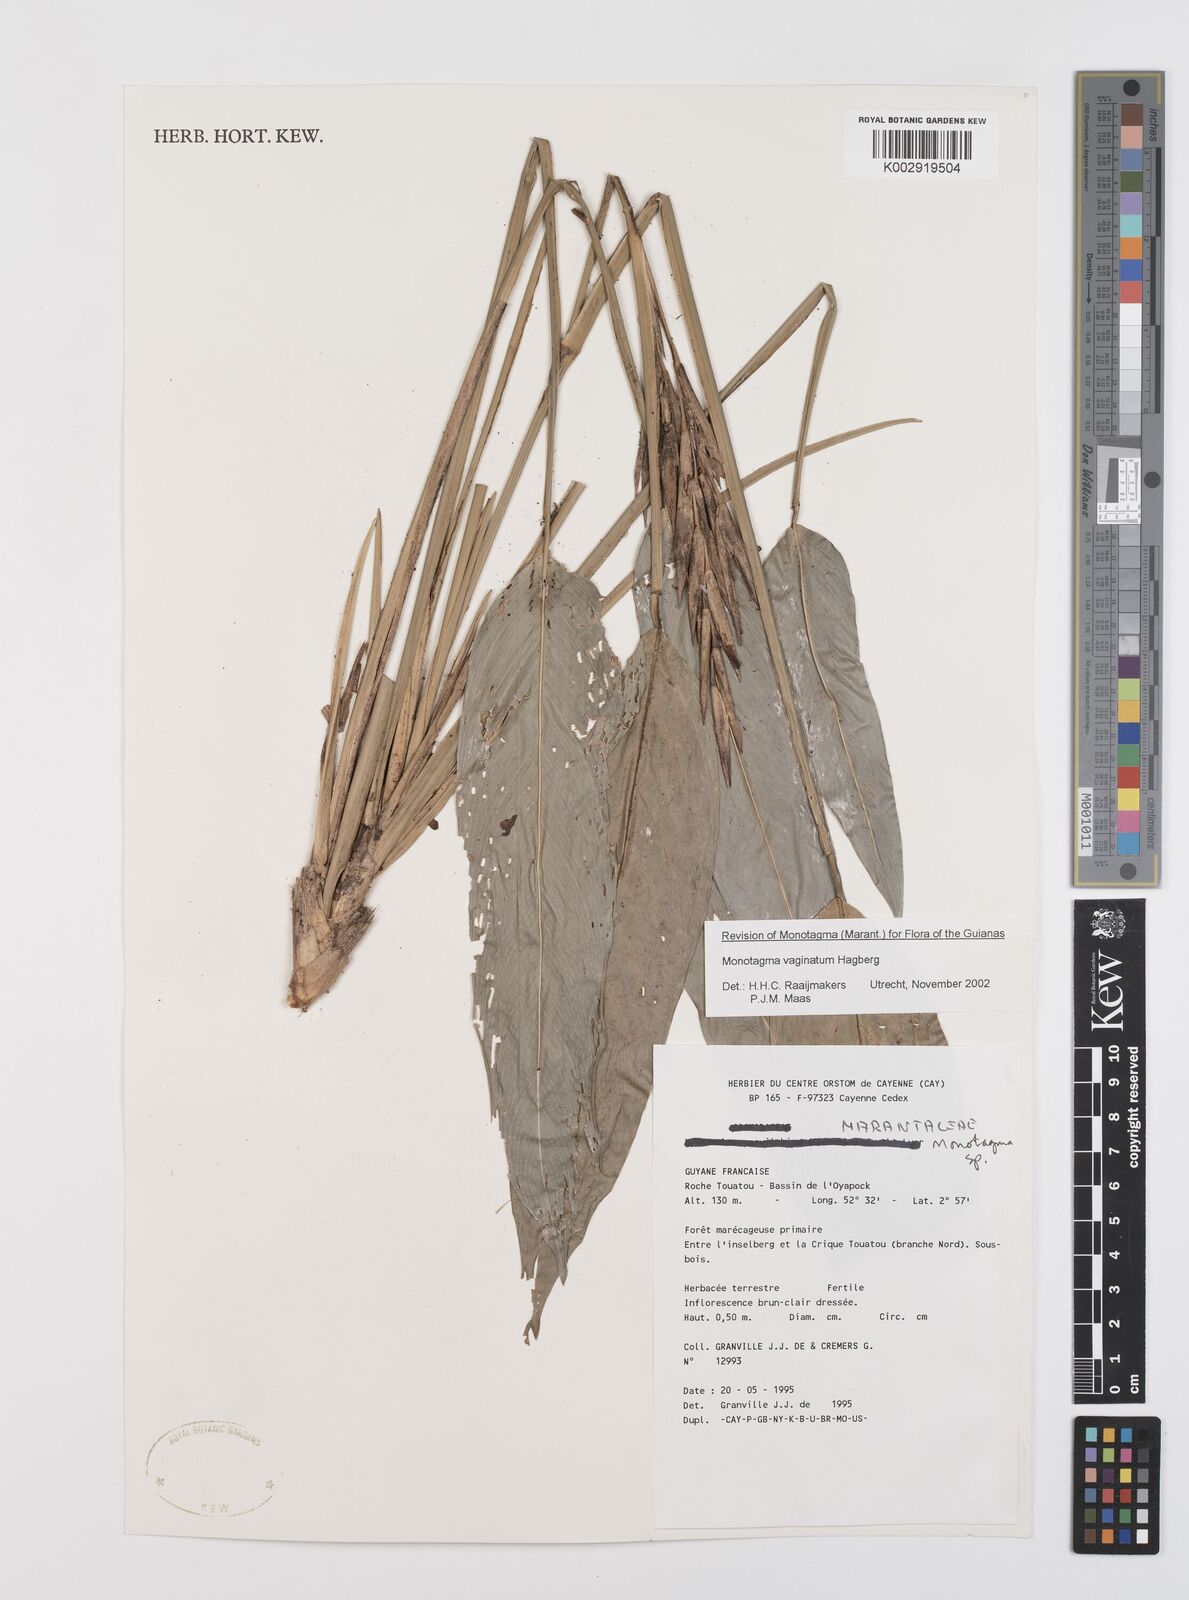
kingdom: Plantae
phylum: Tracheophyta
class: Liliopsida
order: Zingiberales
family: Marantaceae
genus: Monotagma
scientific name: Monotagma vaginatum
